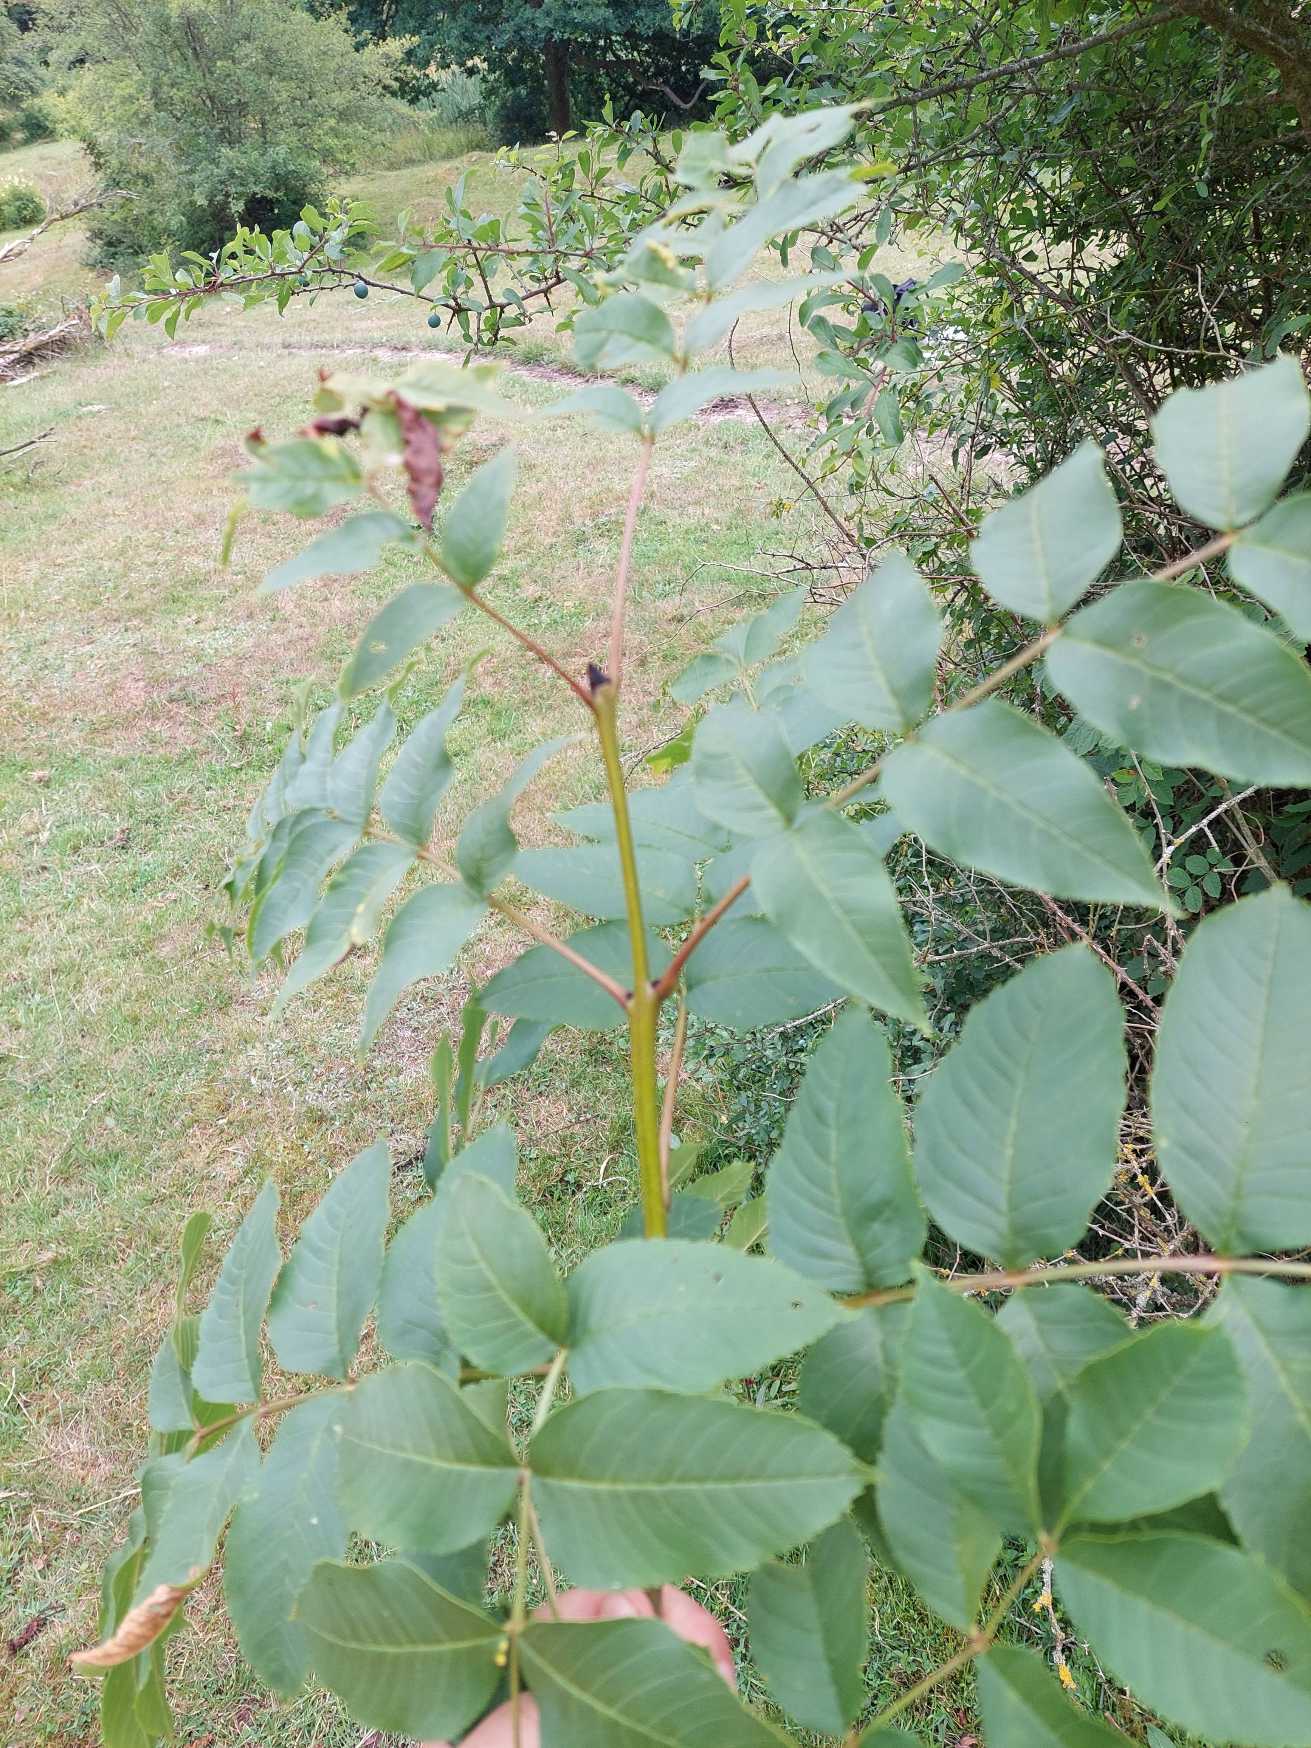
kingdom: Plantae
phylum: Tracheophyta
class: Magnoliopsida
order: Lamiales
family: Oleaceae
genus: Fraxinus
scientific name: Fraxinus excelsior
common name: Ask
